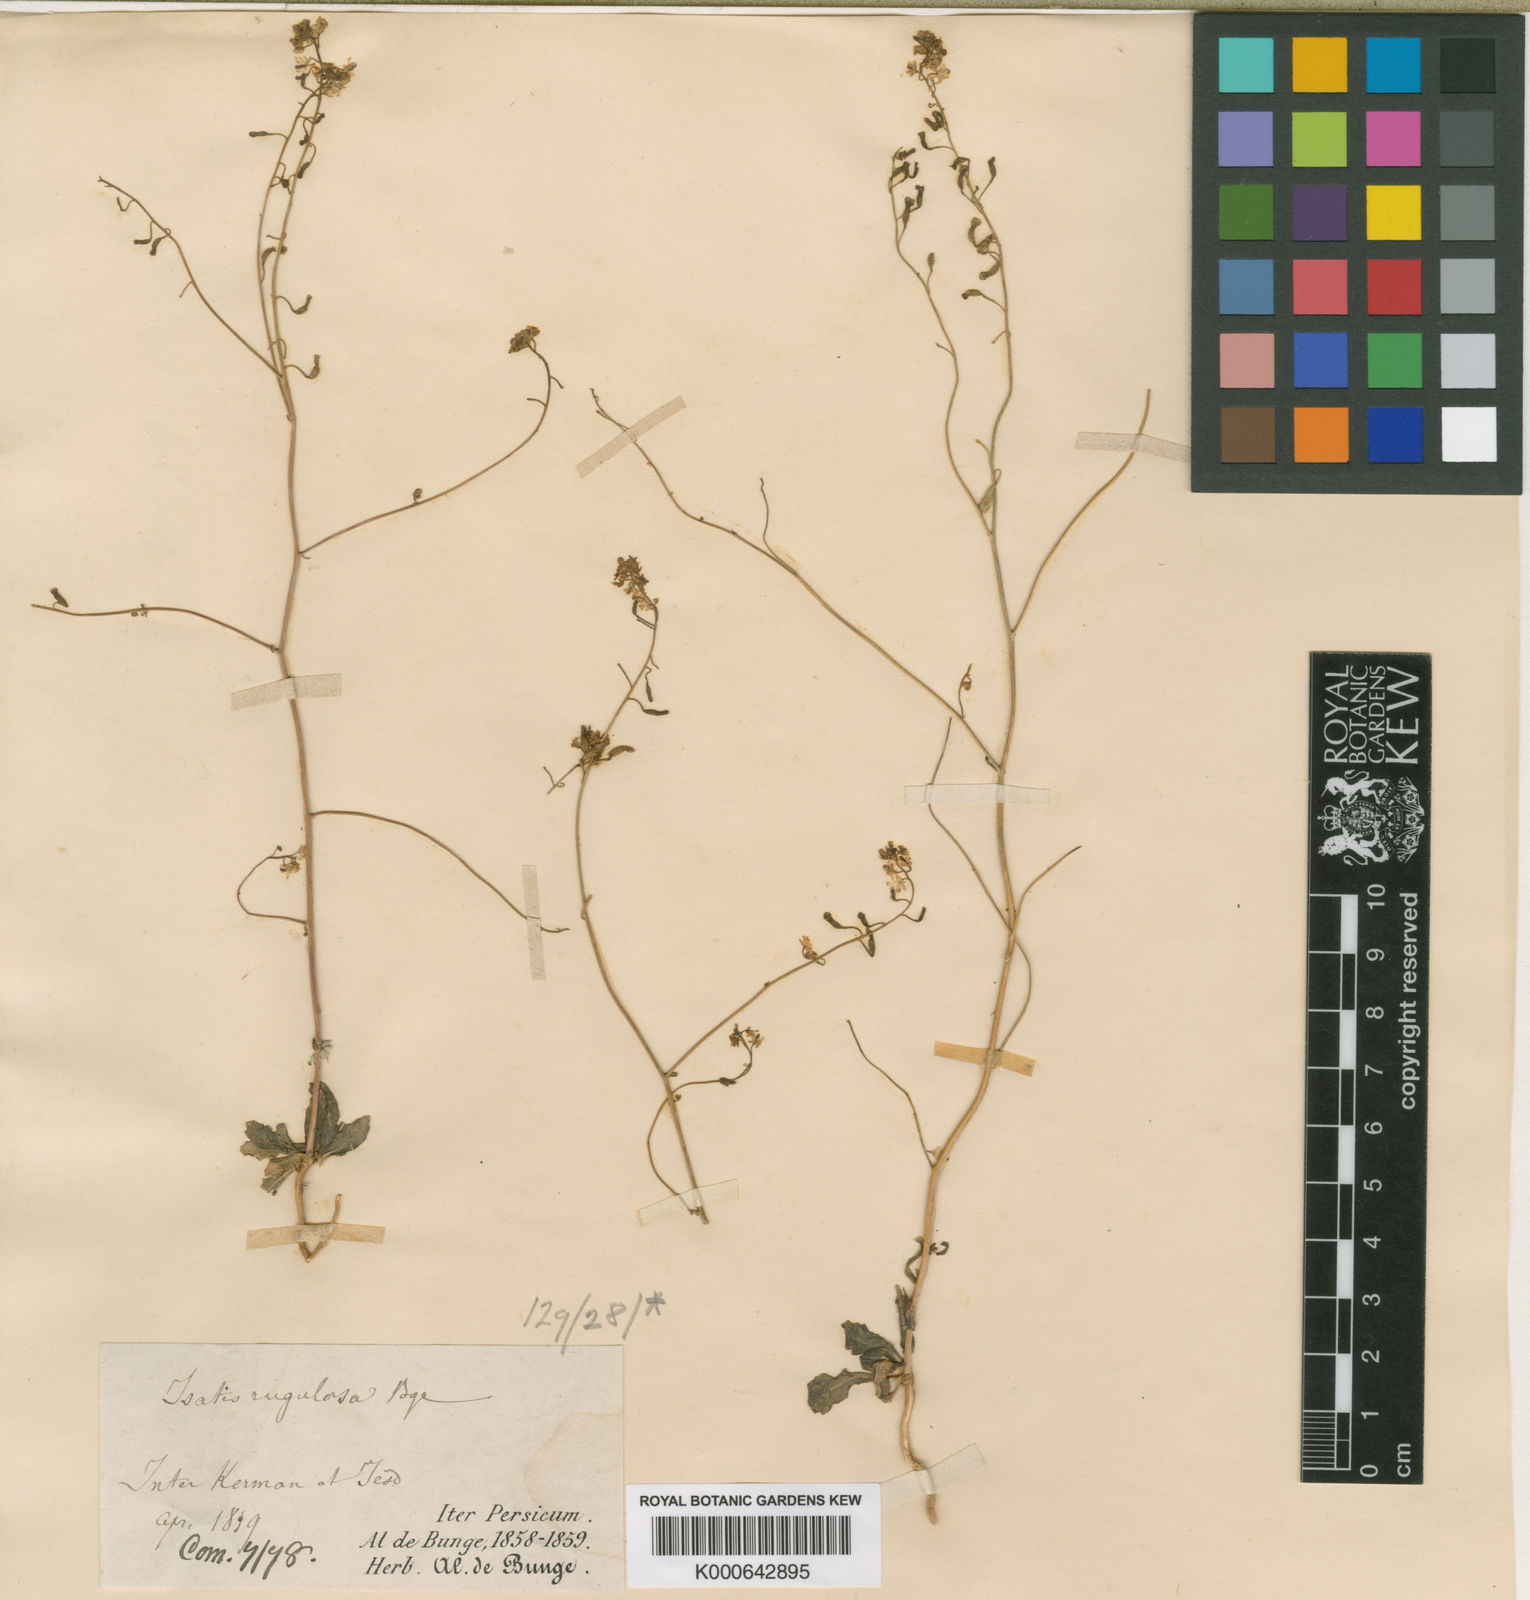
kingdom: Plantae
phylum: Tracheophyta
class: Magnoliopsida
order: Brassicales
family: Brassicaceae
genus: Isatis
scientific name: Isatis rugulosa
